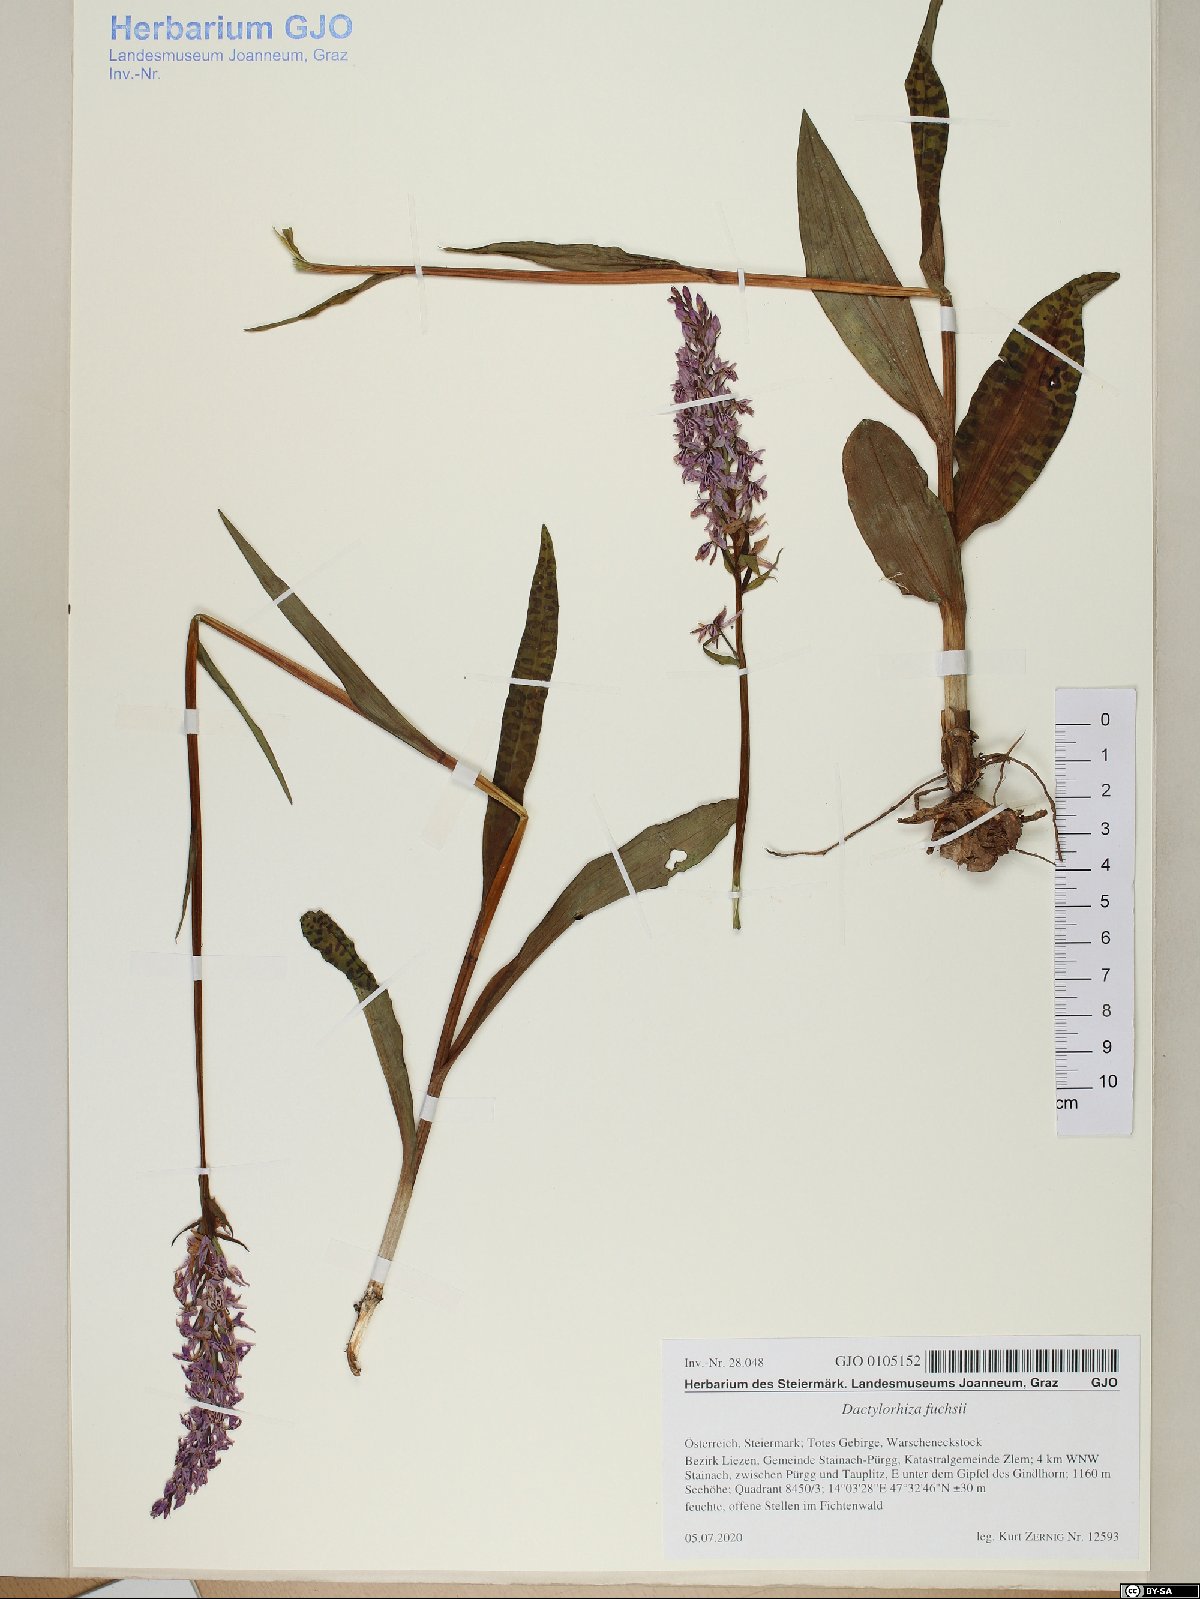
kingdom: Plantae
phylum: Tracheophyta
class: Liliopsida
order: Asparagales
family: Orchidaceae
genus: Dactylorhiza
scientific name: Dactylorhiza maculata
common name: Heath spotted-orchid
